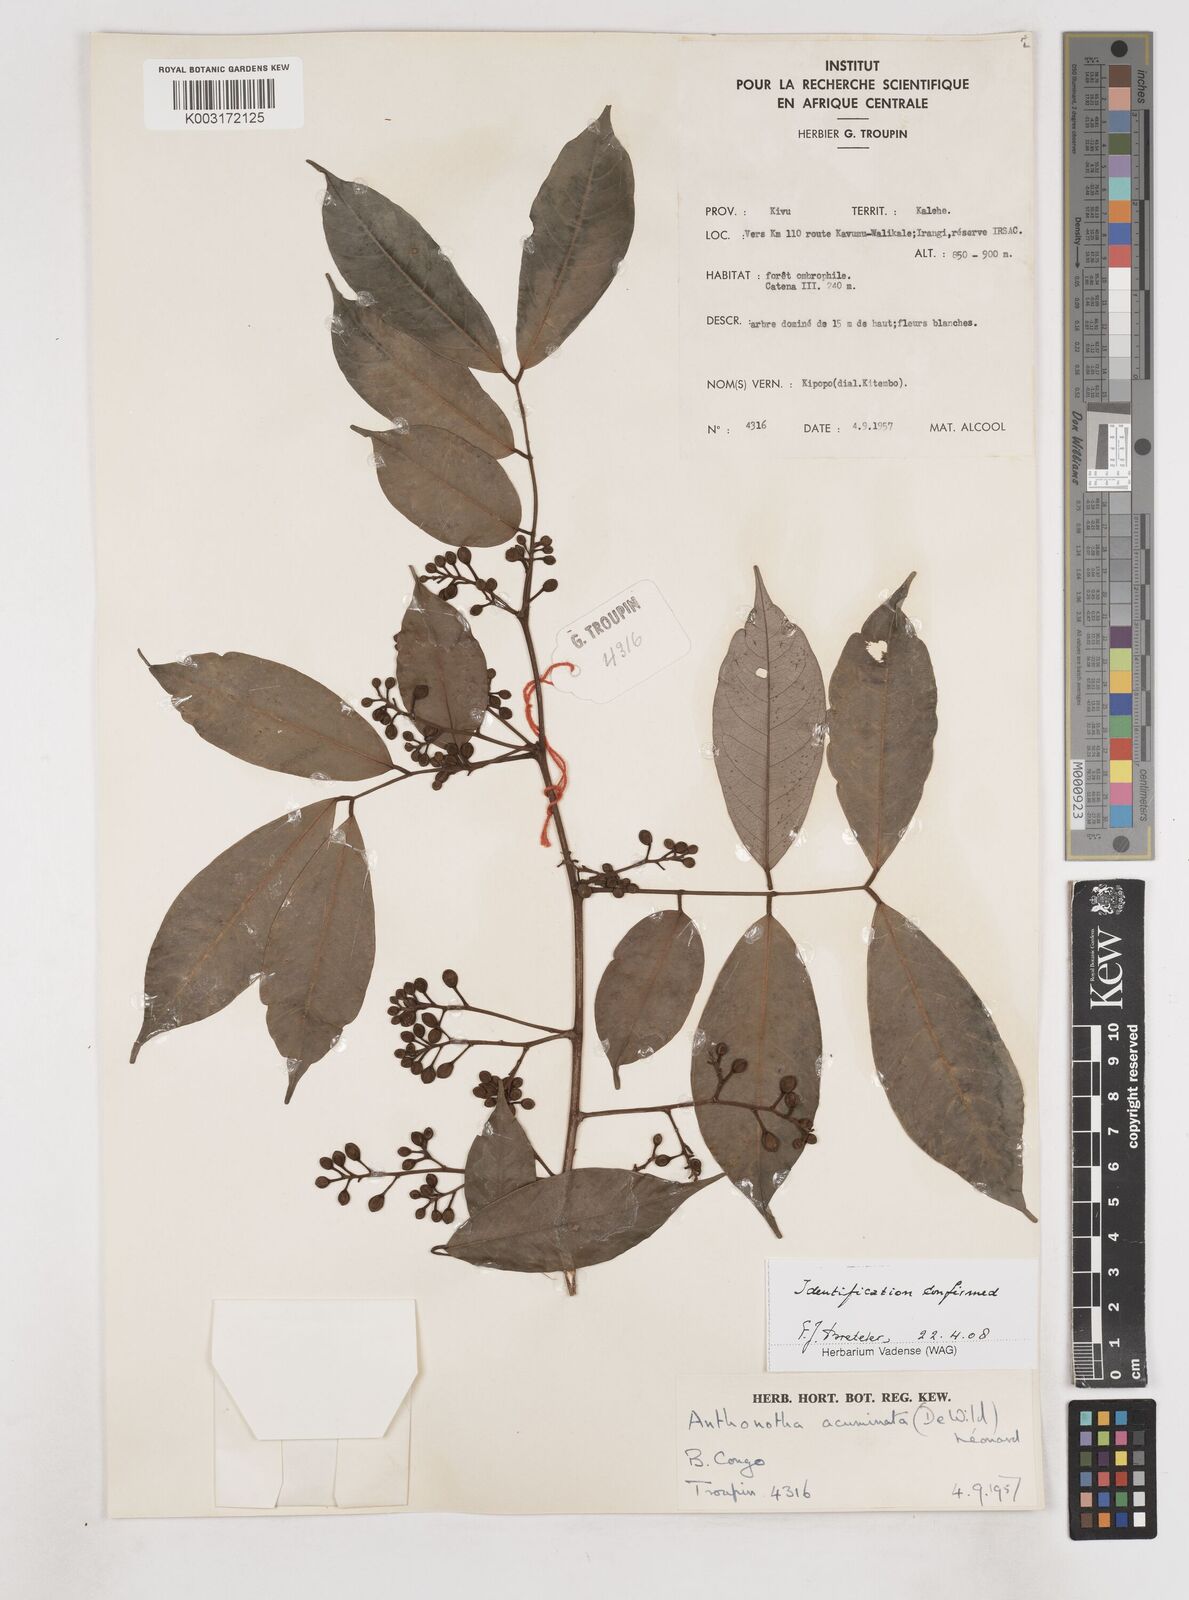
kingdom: Plantae
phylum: Tracheophyta
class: Magnoliopsida
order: Fabales
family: Fabaceae
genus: Anthonotha
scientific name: Anthonotha acuminata
